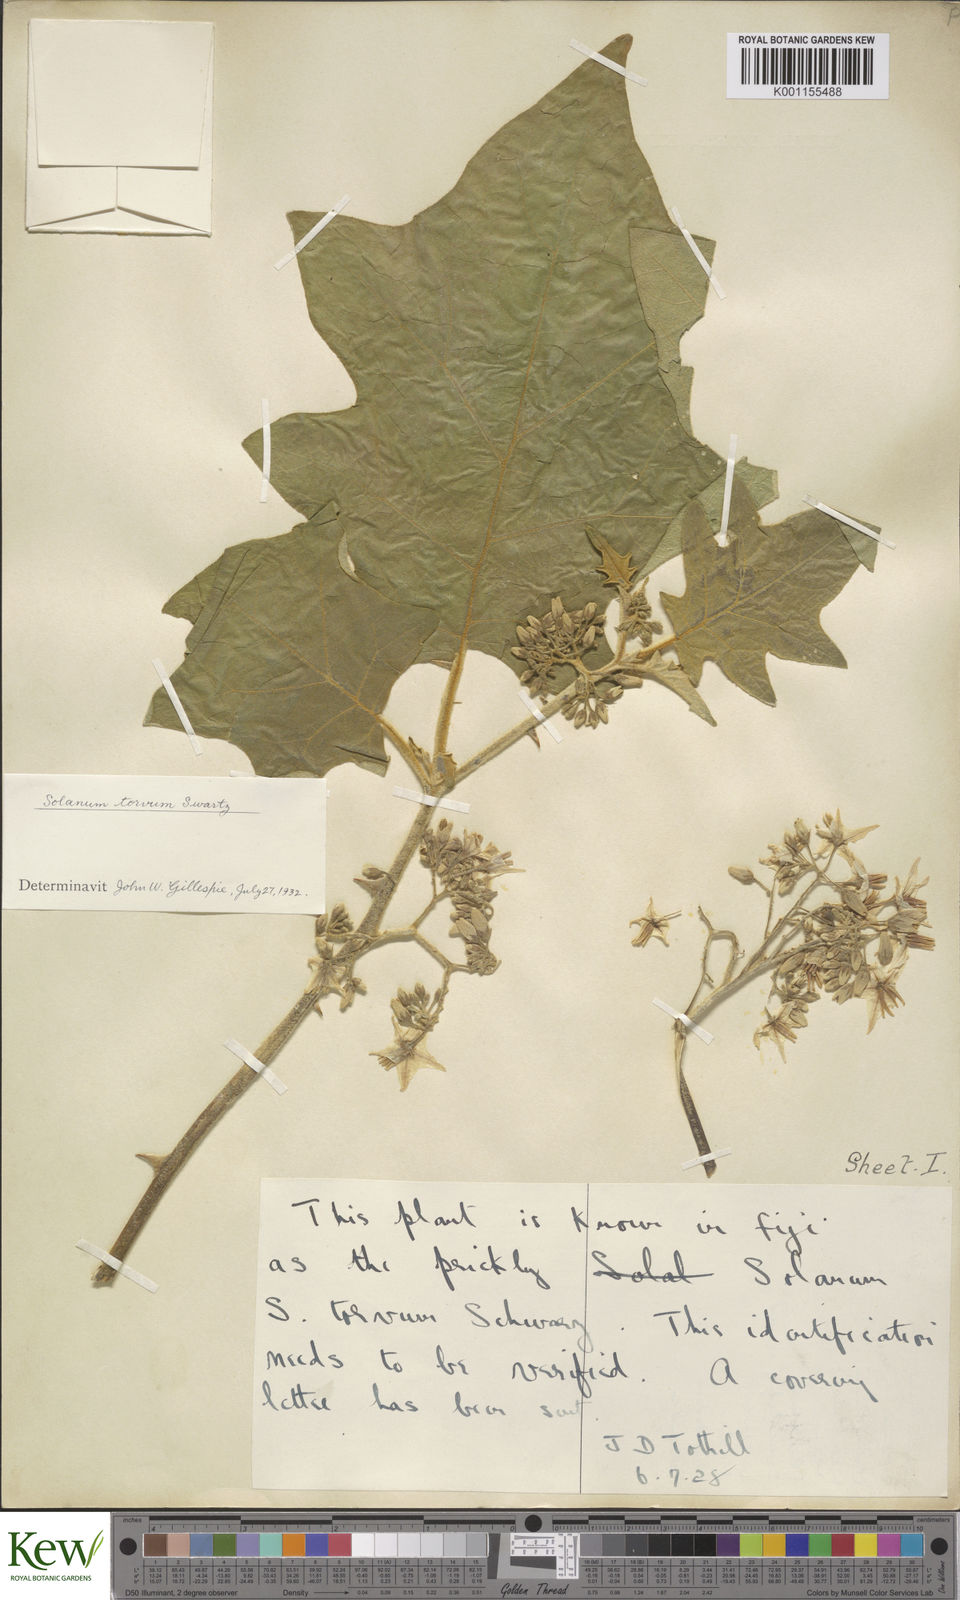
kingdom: Plantae
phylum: Tracheophyta
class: Magnoliopsida
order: Solanales
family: Solanaceae
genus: Solanum
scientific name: Solanum torvum
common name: Turkey berry
